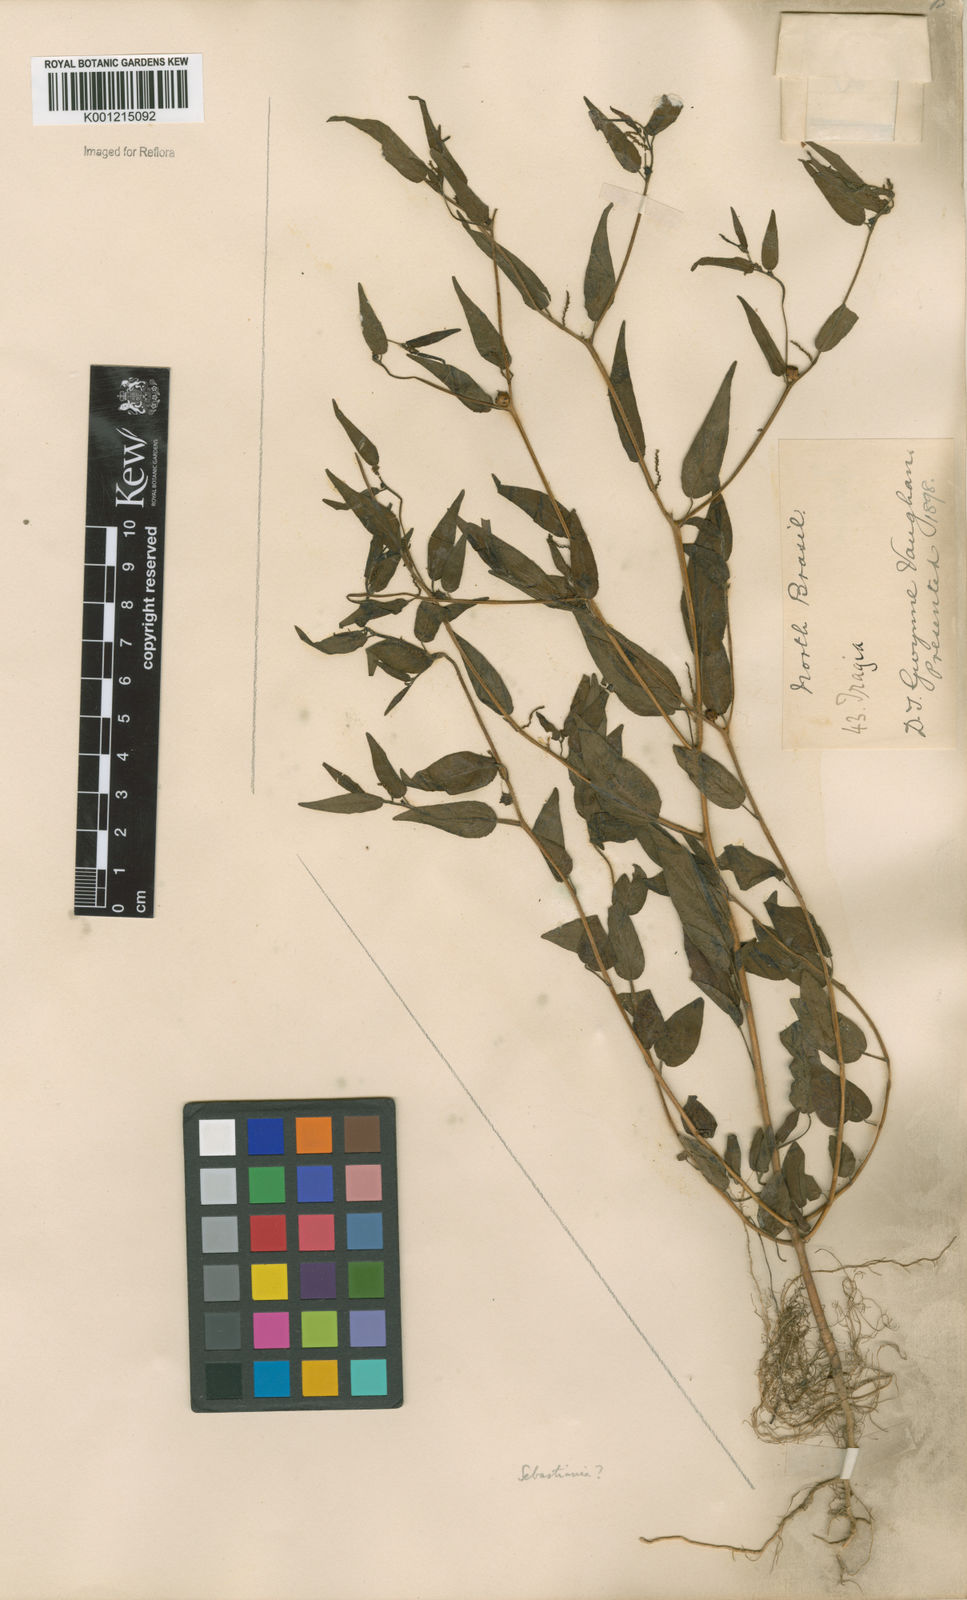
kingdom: Plantae
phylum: Tracheophyta
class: Magnoliopsida
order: Malpighiales
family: Euphorbiaceae
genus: Sebastiania
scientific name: Sebastiania
